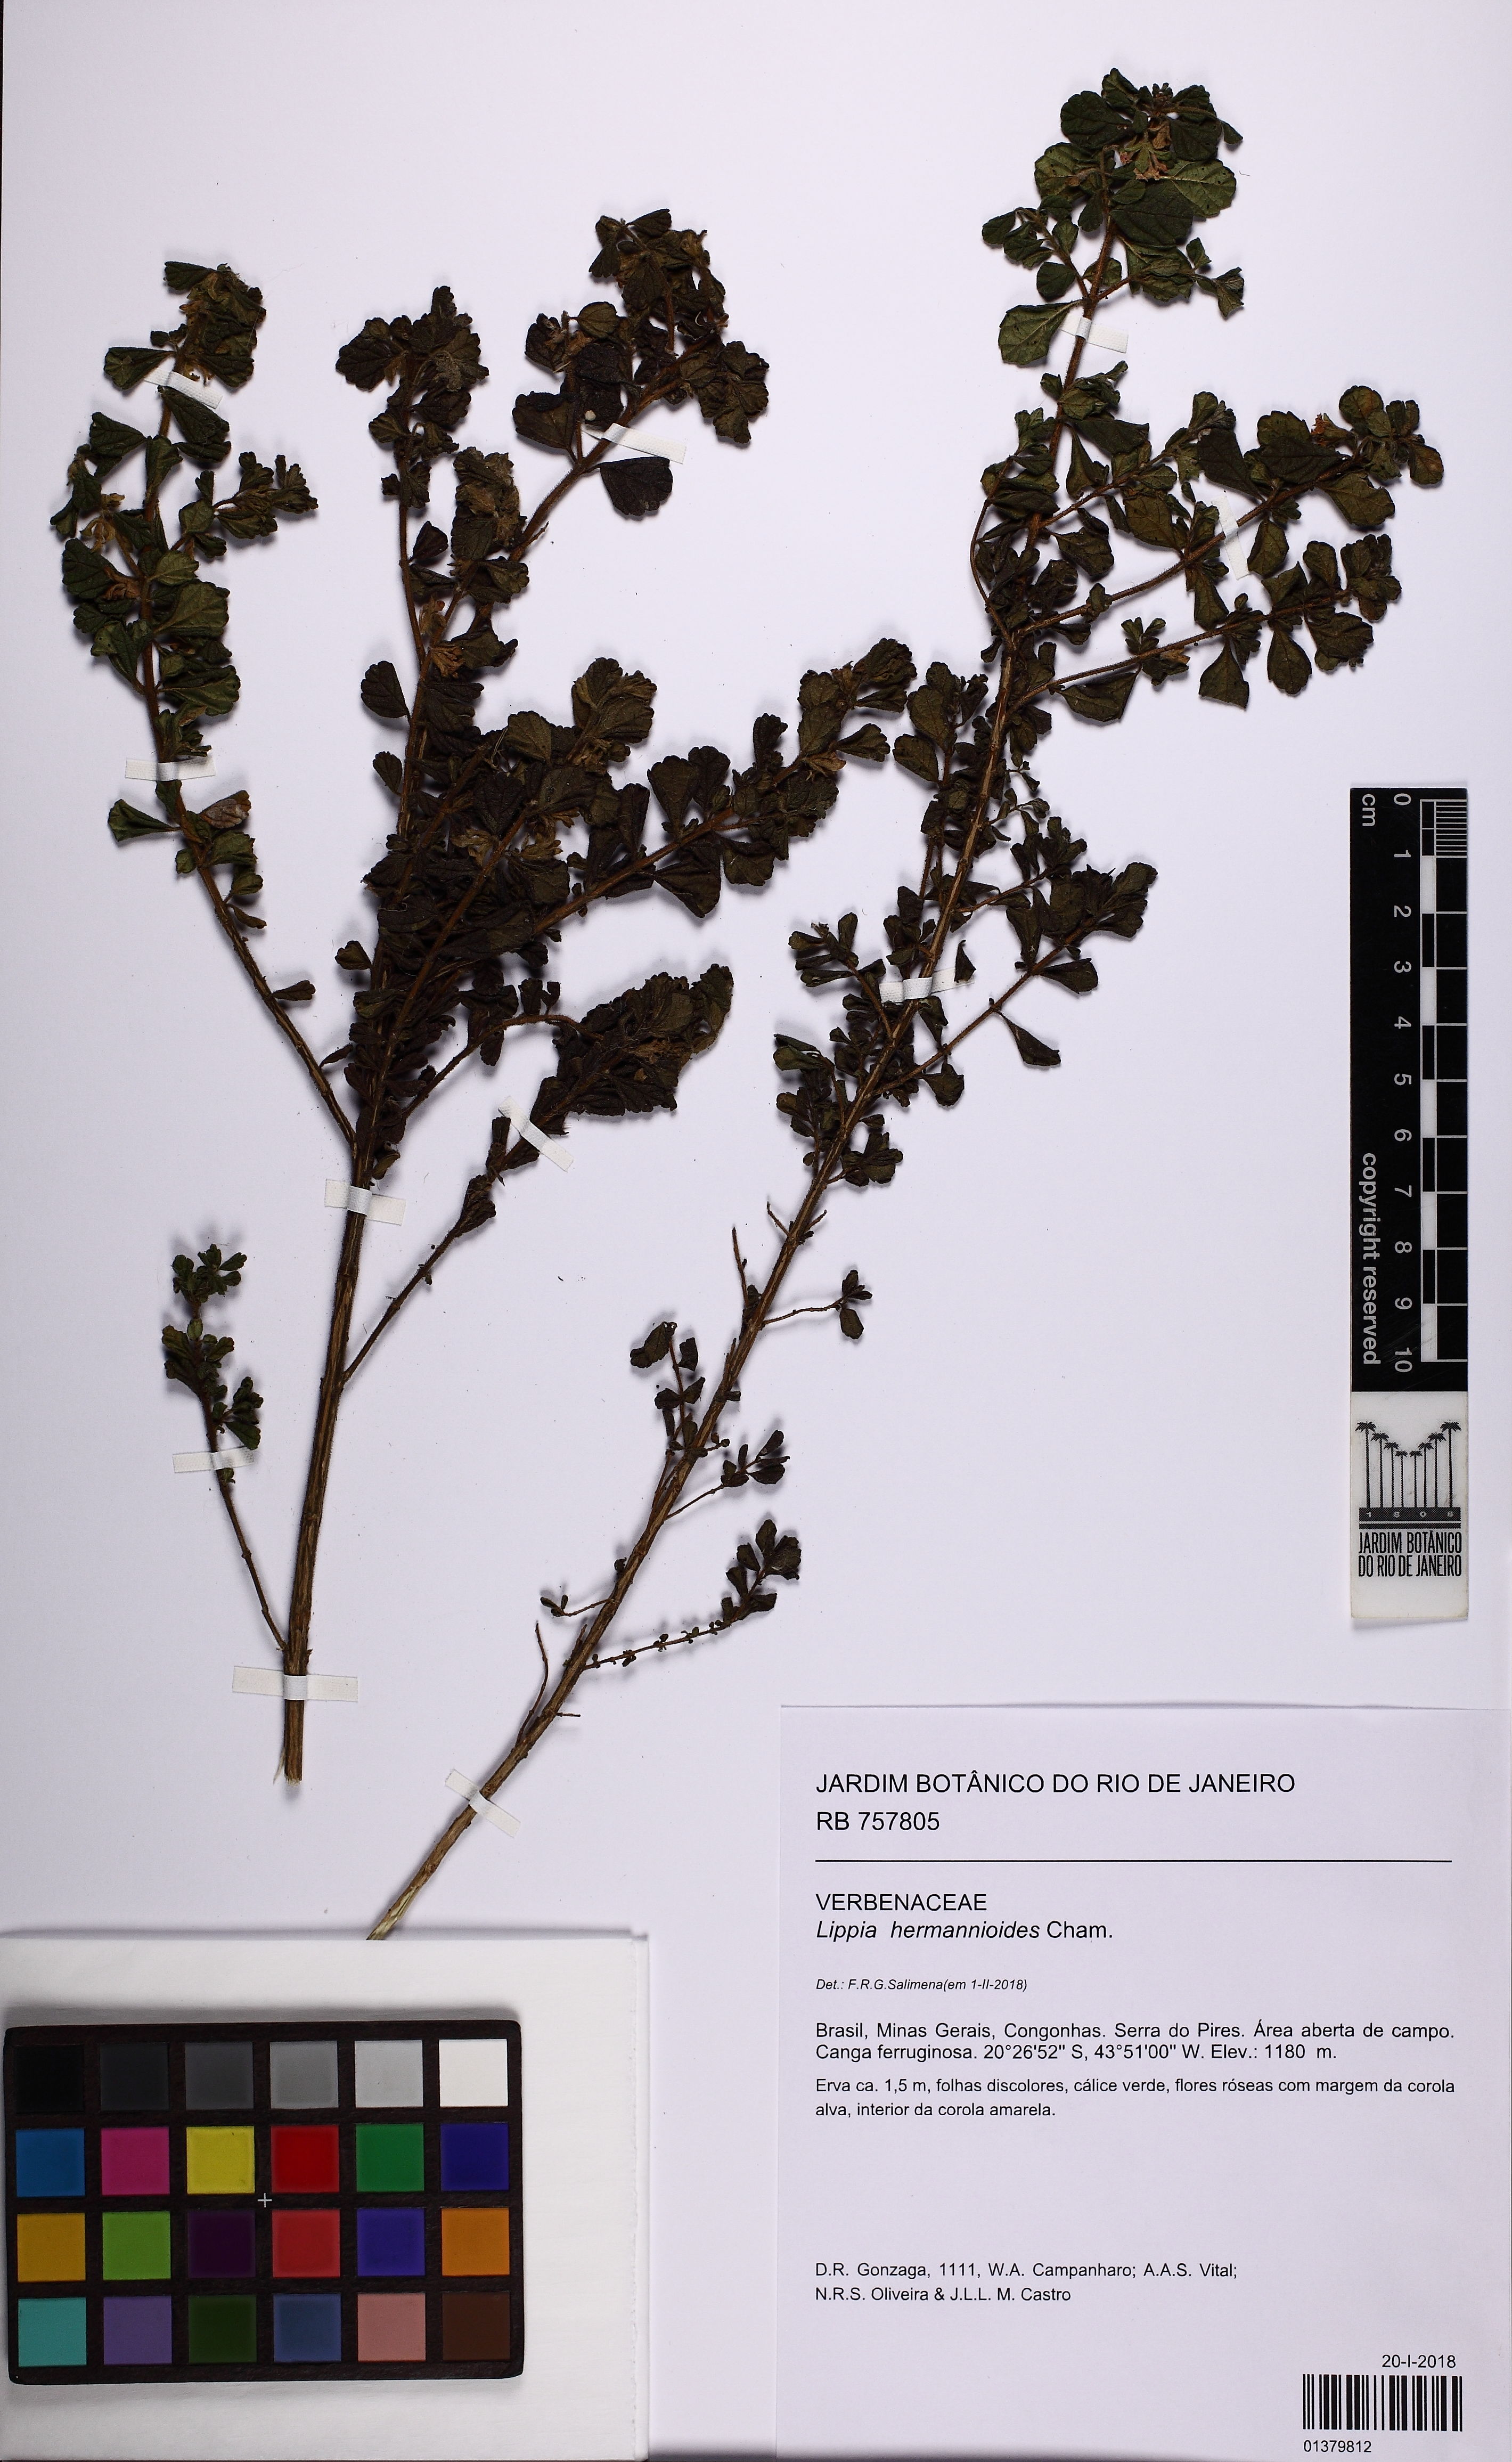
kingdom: Plantae
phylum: Tracheophyta
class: Magnoliopsida
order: Lamiales
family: Verbenaceae
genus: Lippia
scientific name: Lippia hermannioides
